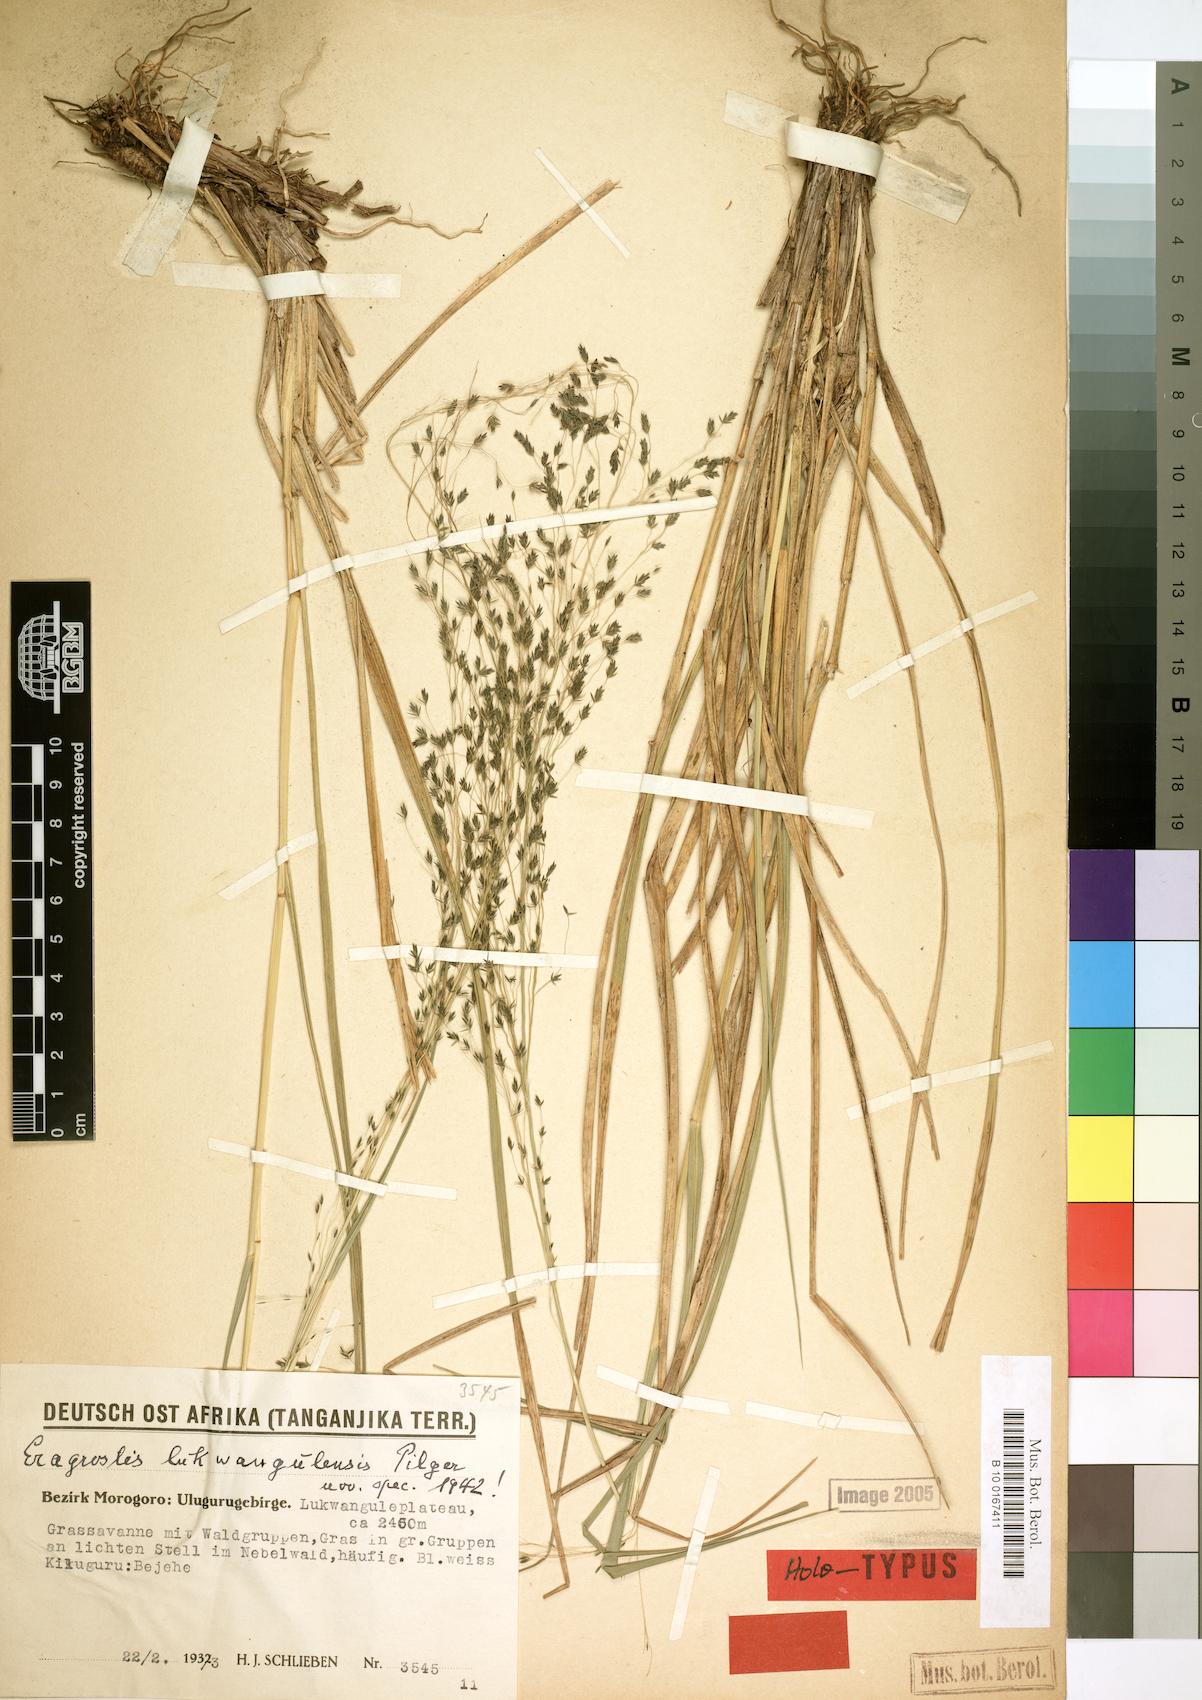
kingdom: Plantae
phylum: Tracheophyta
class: Liliopsida
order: Poales
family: Poaceae
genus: Eragrostis
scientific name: Eragrostis homblei
